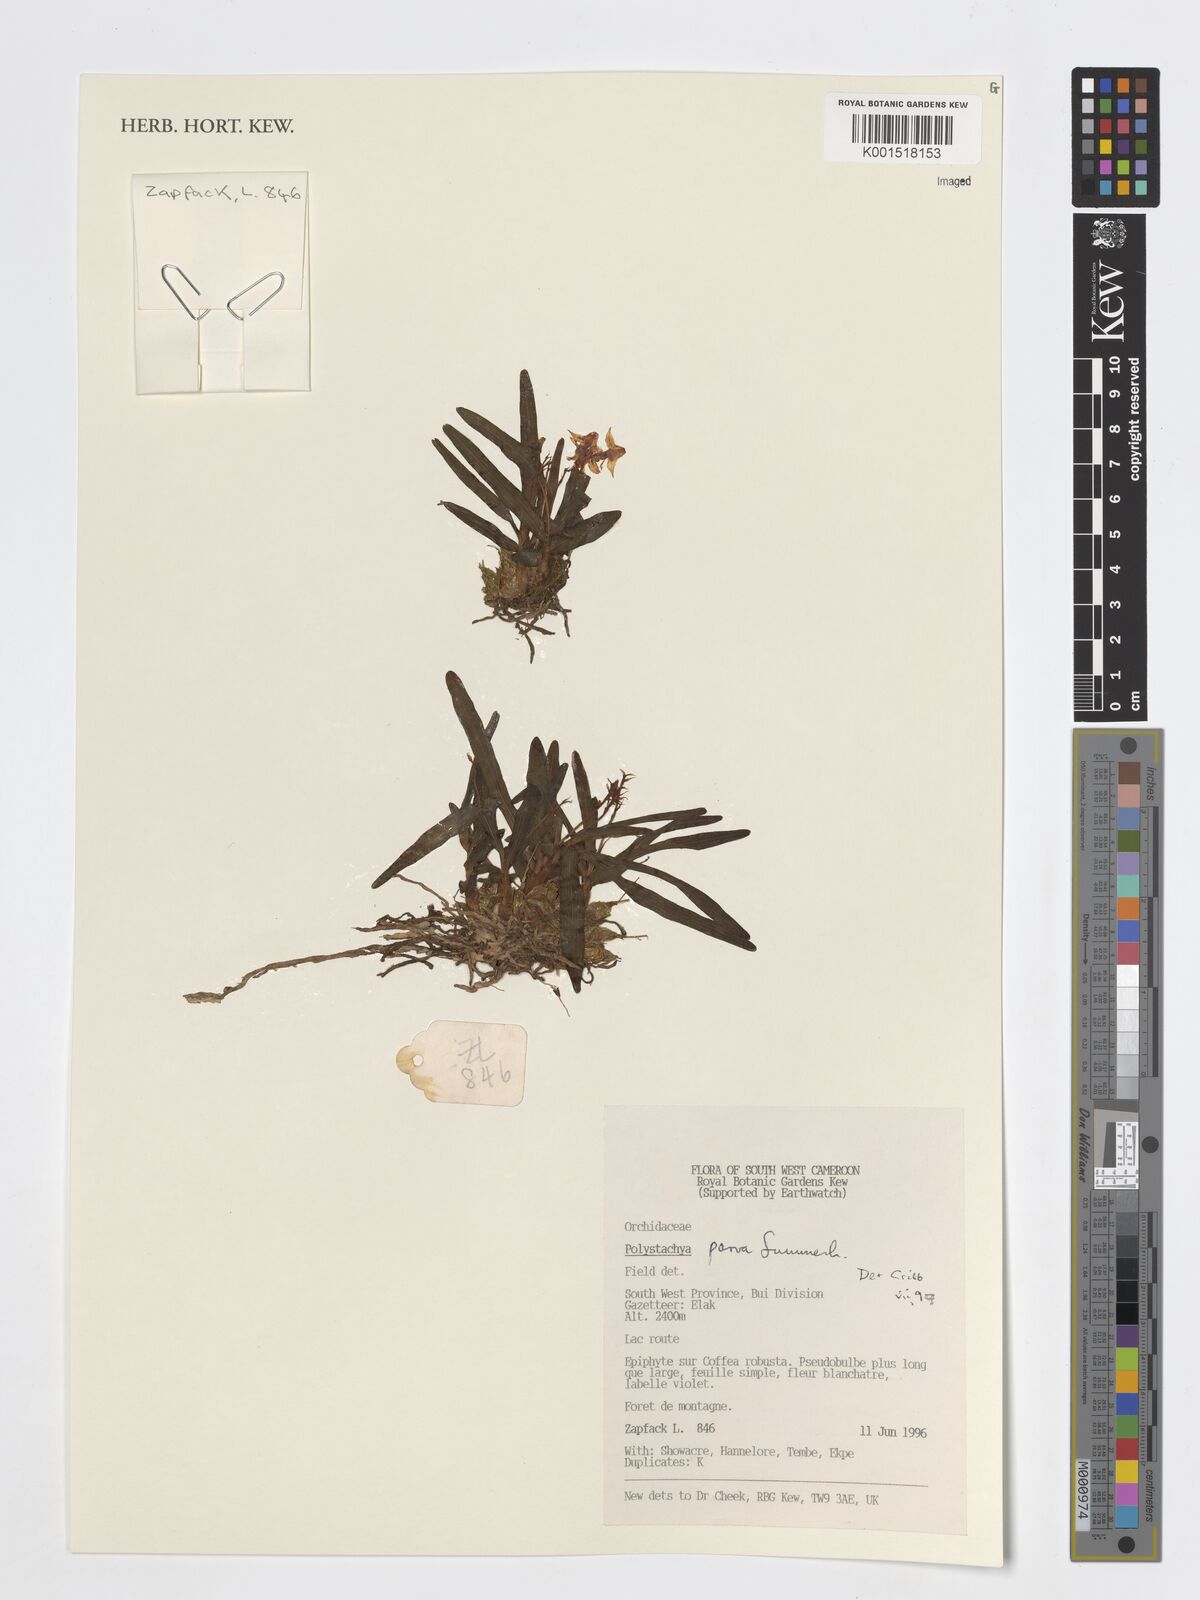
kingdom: Plantae
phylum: Tracheophyta
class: Liliopsida
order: Asparagales
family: Orchidaceae
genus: Polystachya
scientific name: Polystachya parva
